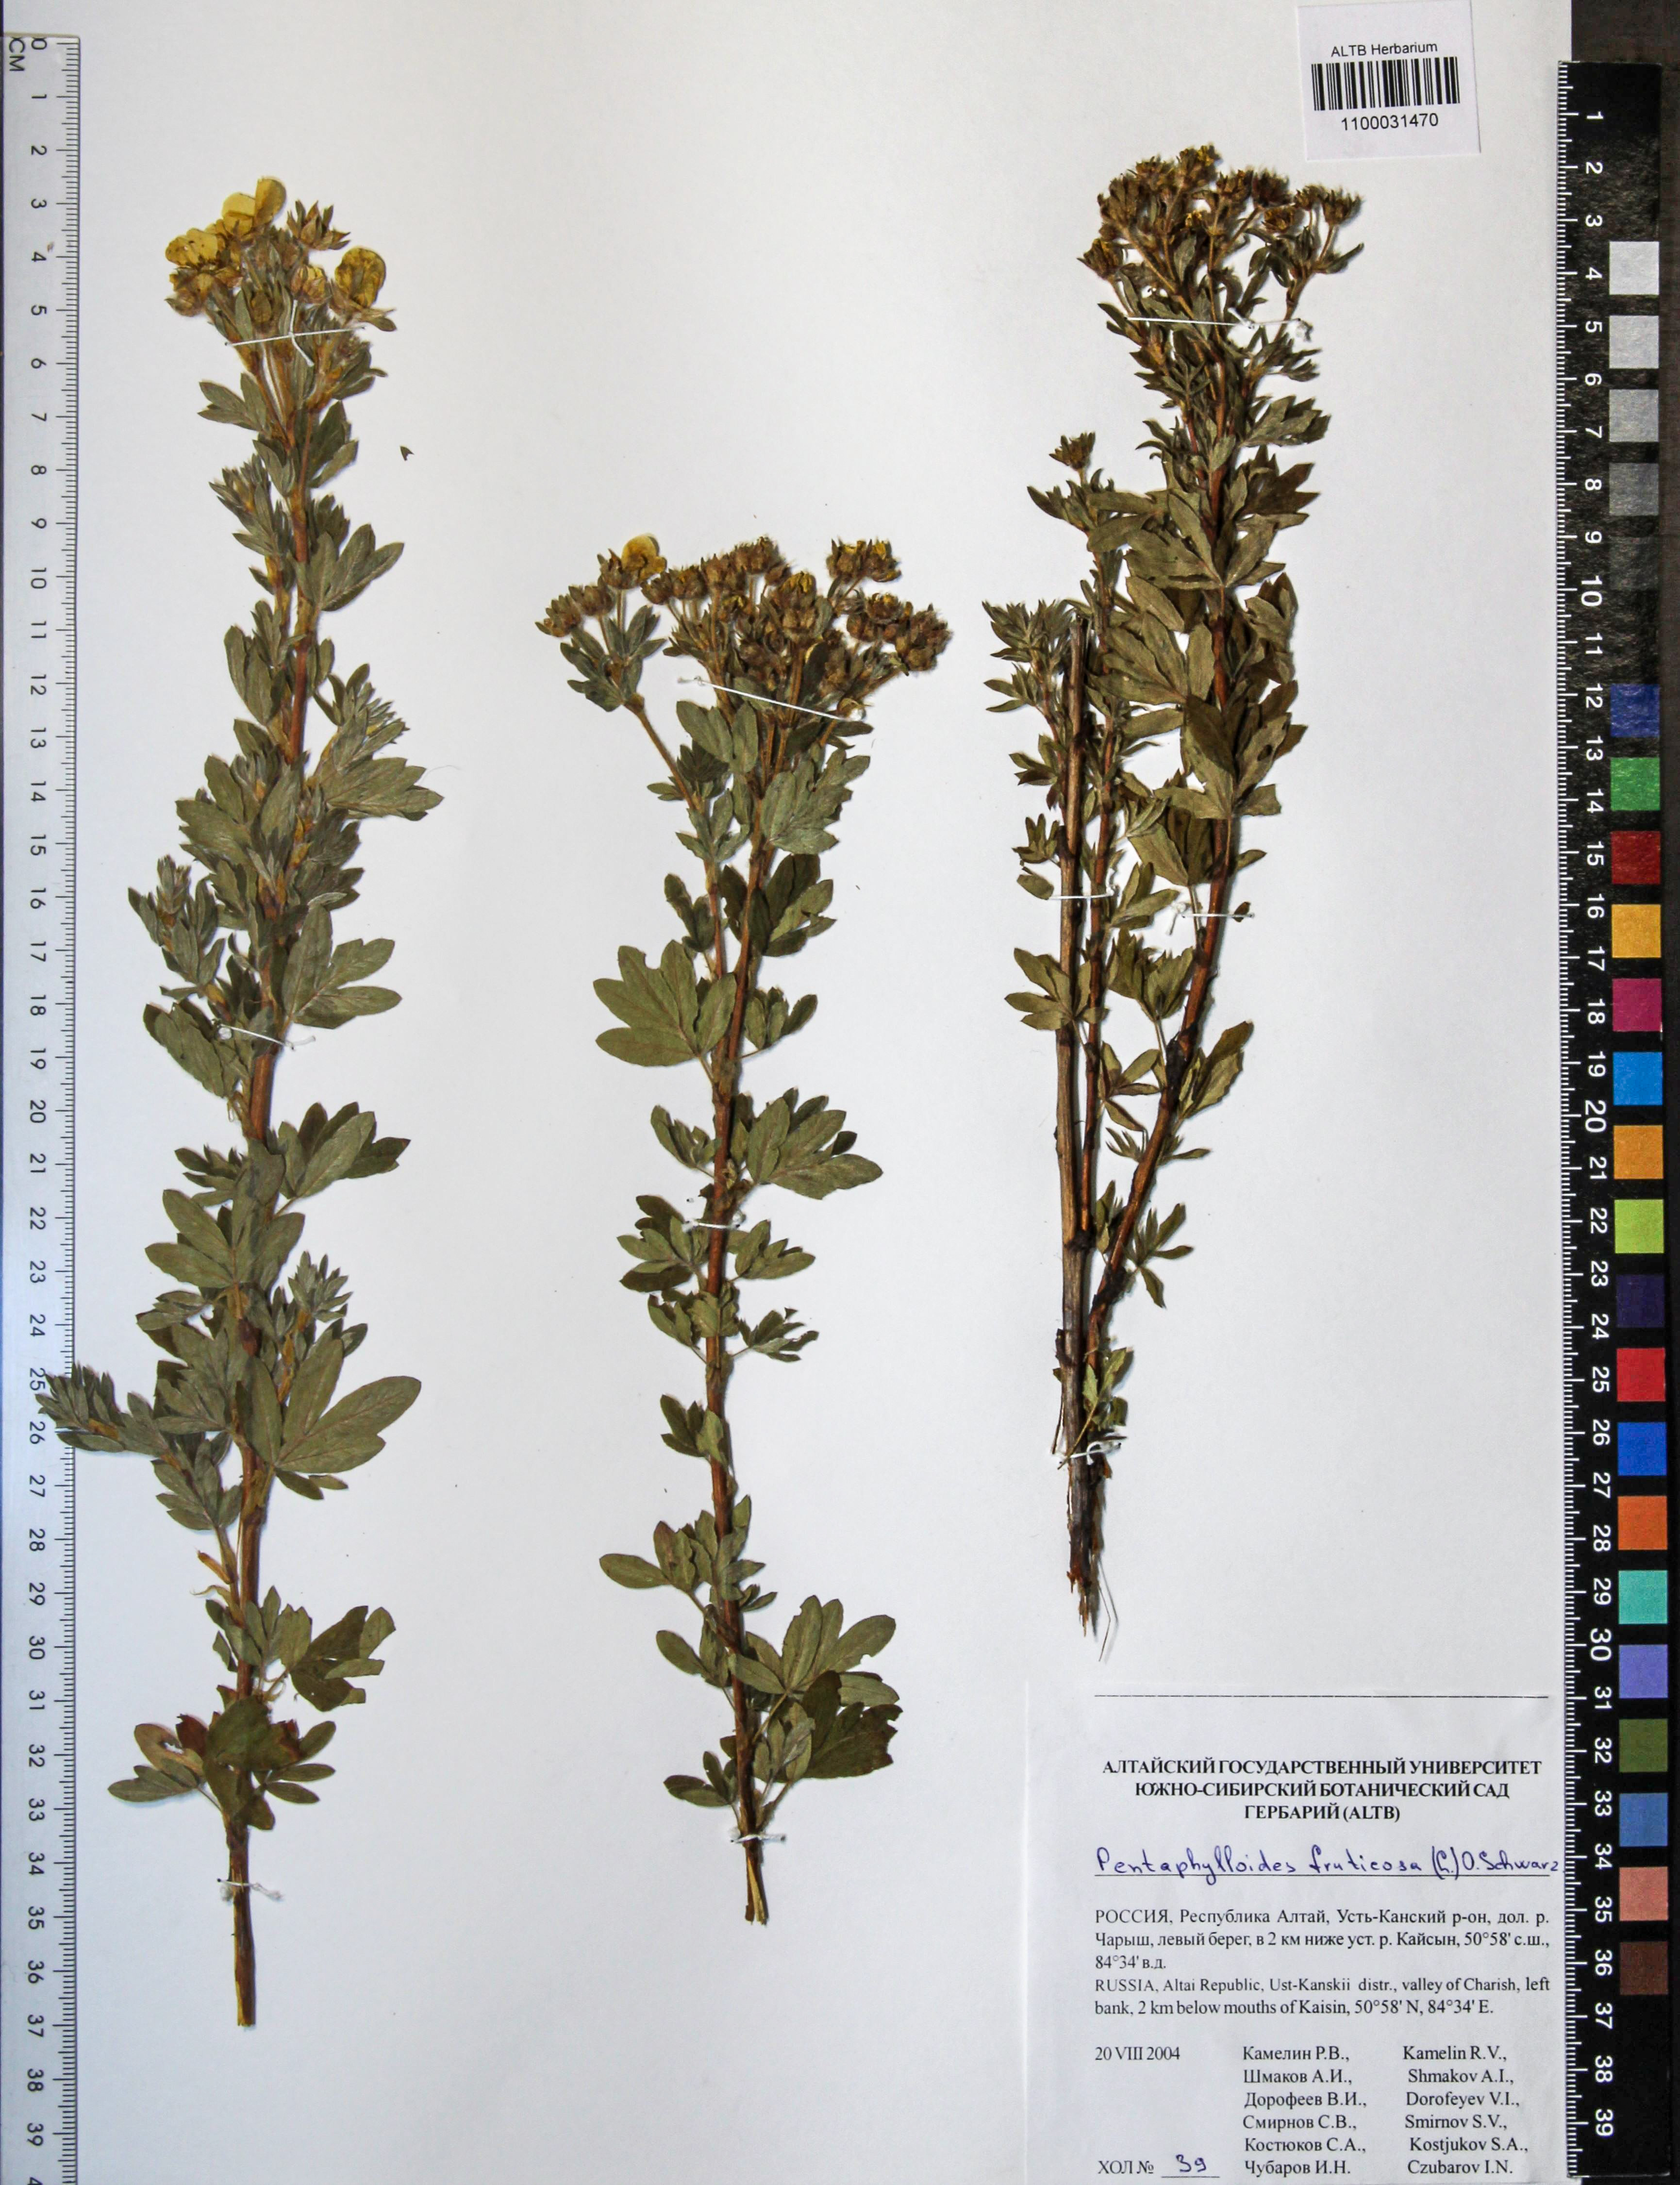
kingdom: Plantae
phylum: Tracheophyta
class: Magnoliopsida
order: Rosales
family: Rosaceae
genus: Dasiphora
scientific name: Dasiphora fruticosa
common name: Shrubby cinquefoil
